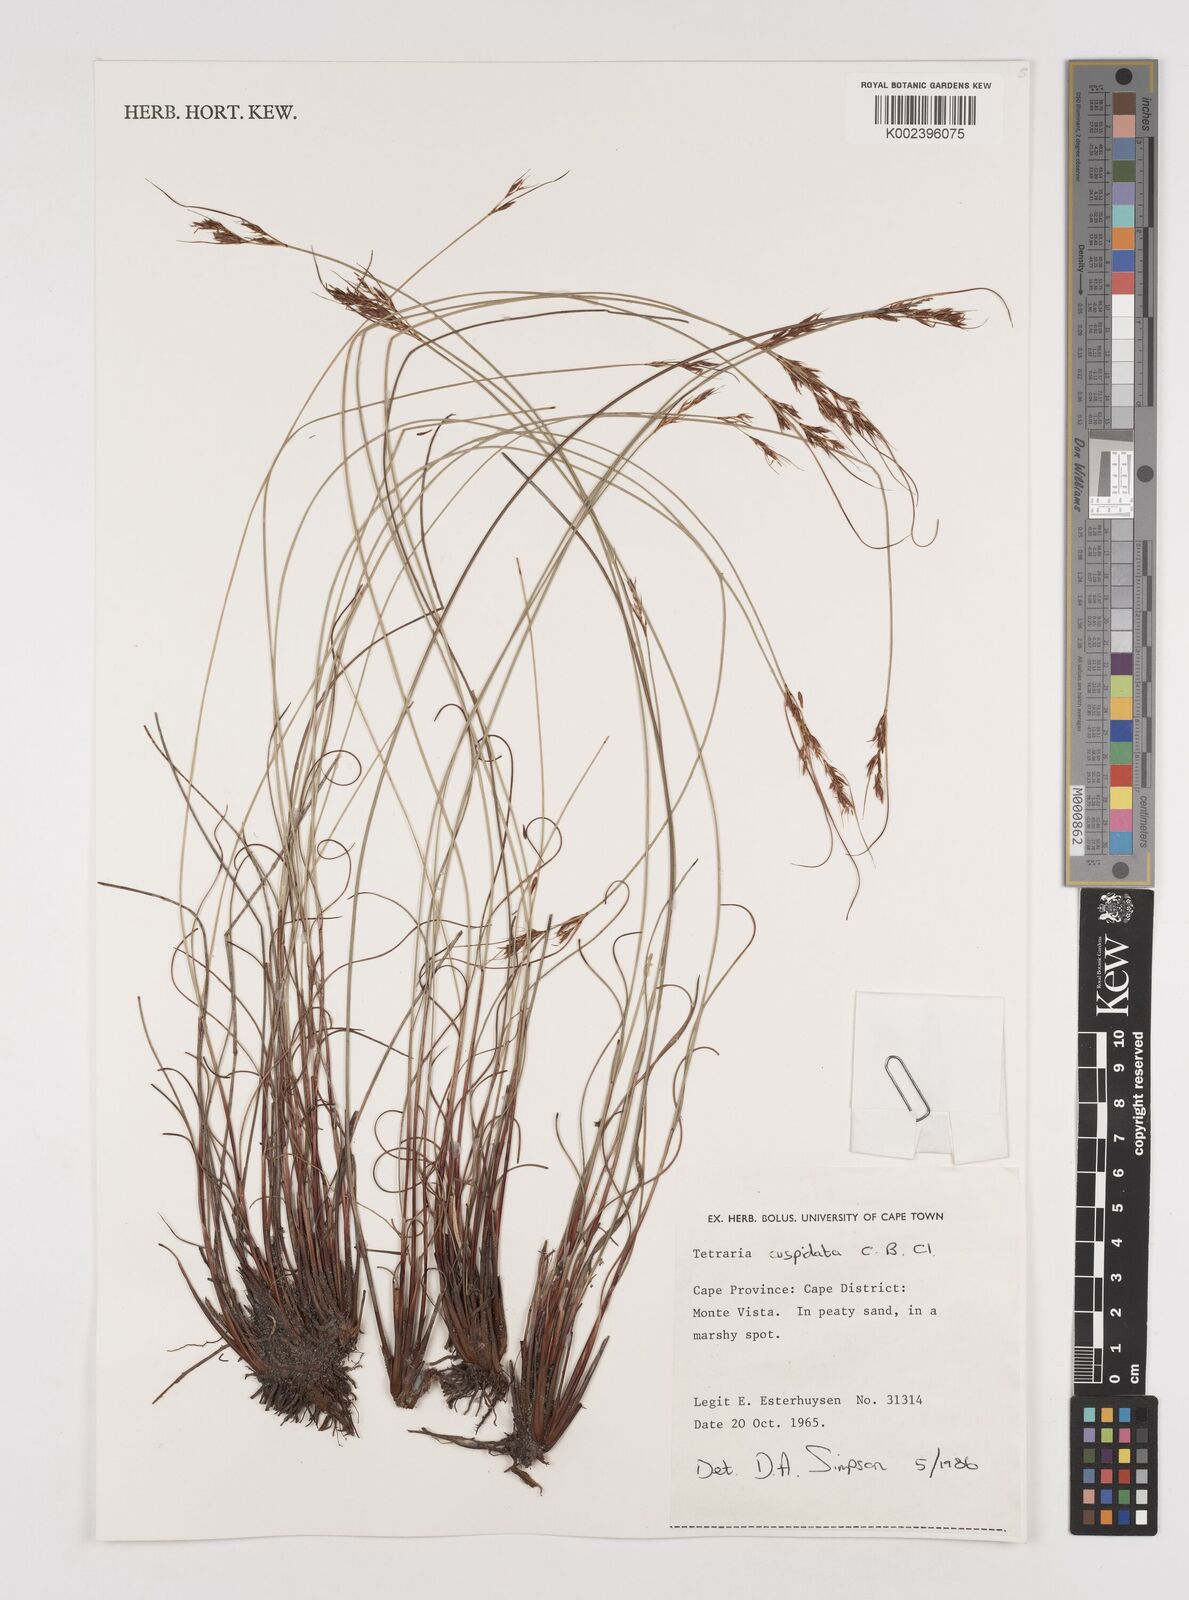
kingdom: Plantae
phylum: Tracheophyta
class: Liliopsida
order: Poales
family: Cyperaceae
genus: Schoenus
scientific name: Schoenus cuspidatus
